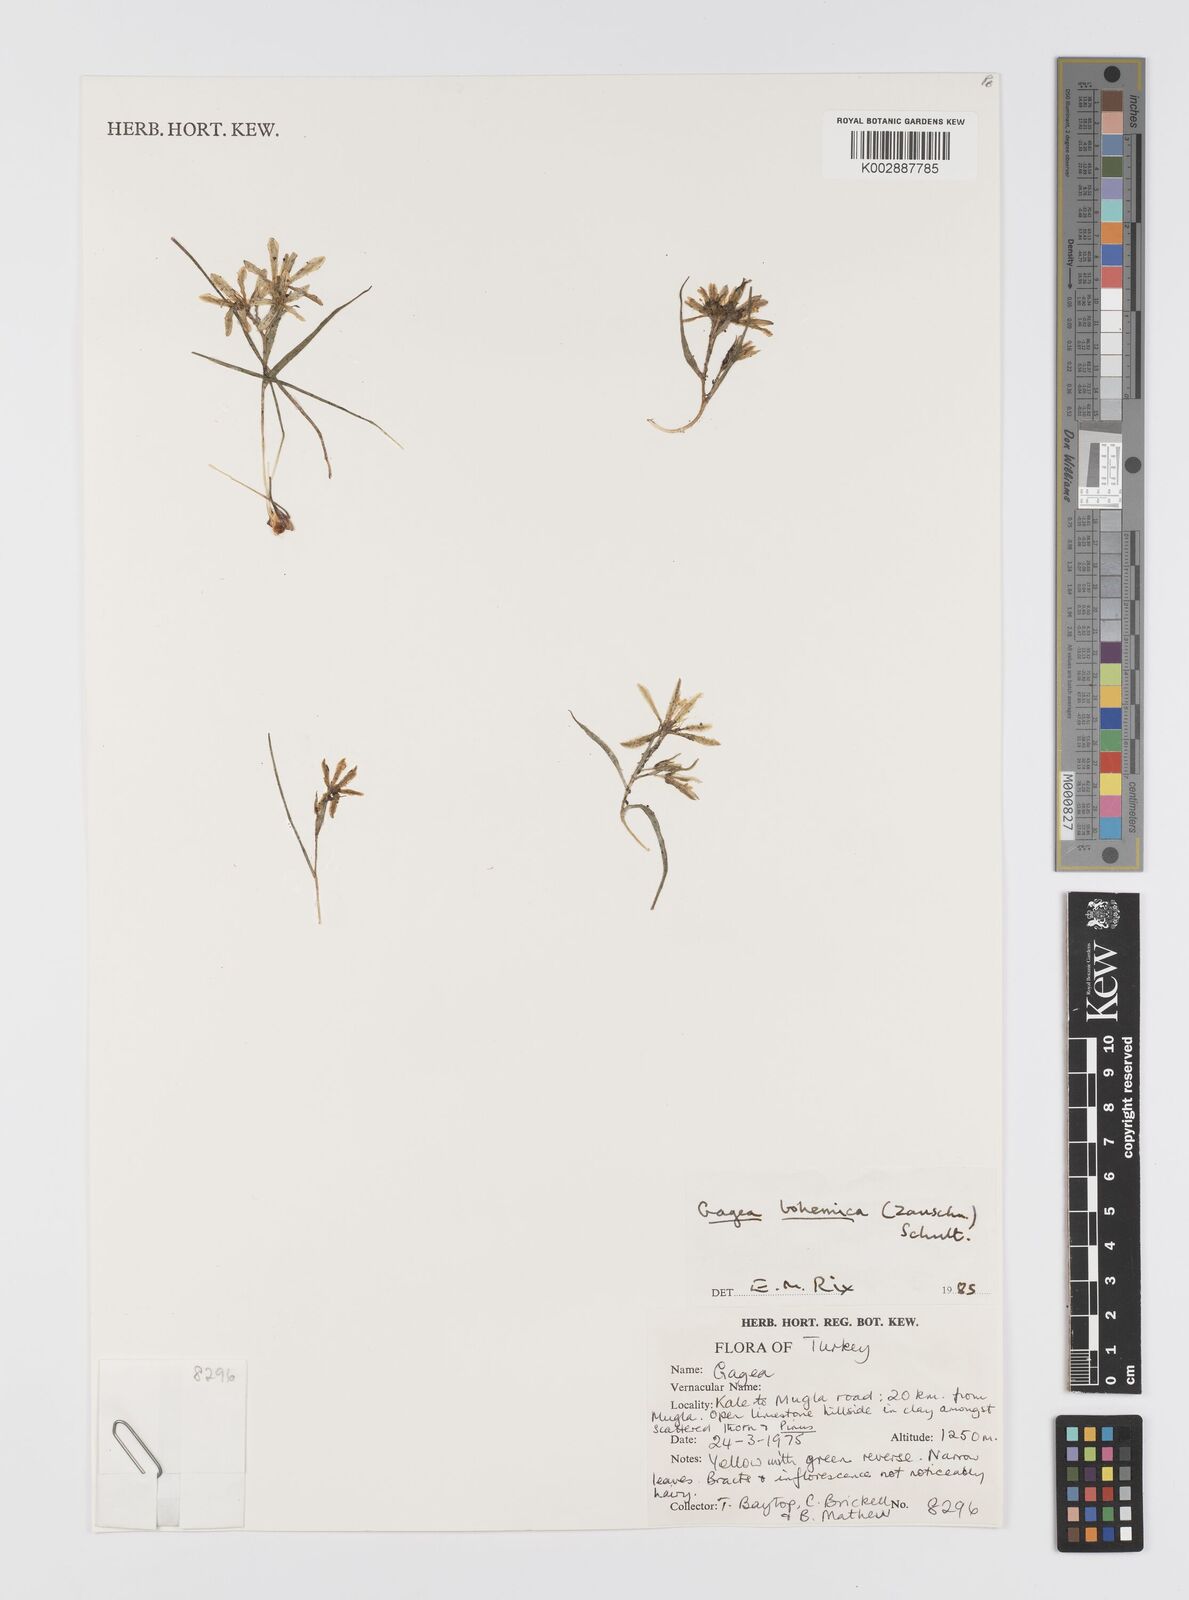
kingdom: Plantae
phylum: Tracheophyta
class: Liliopsida
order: Liliales
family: Liliaceae
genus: Gagea
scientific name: Gagea bohemica
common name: Early star-of-bethlehem
